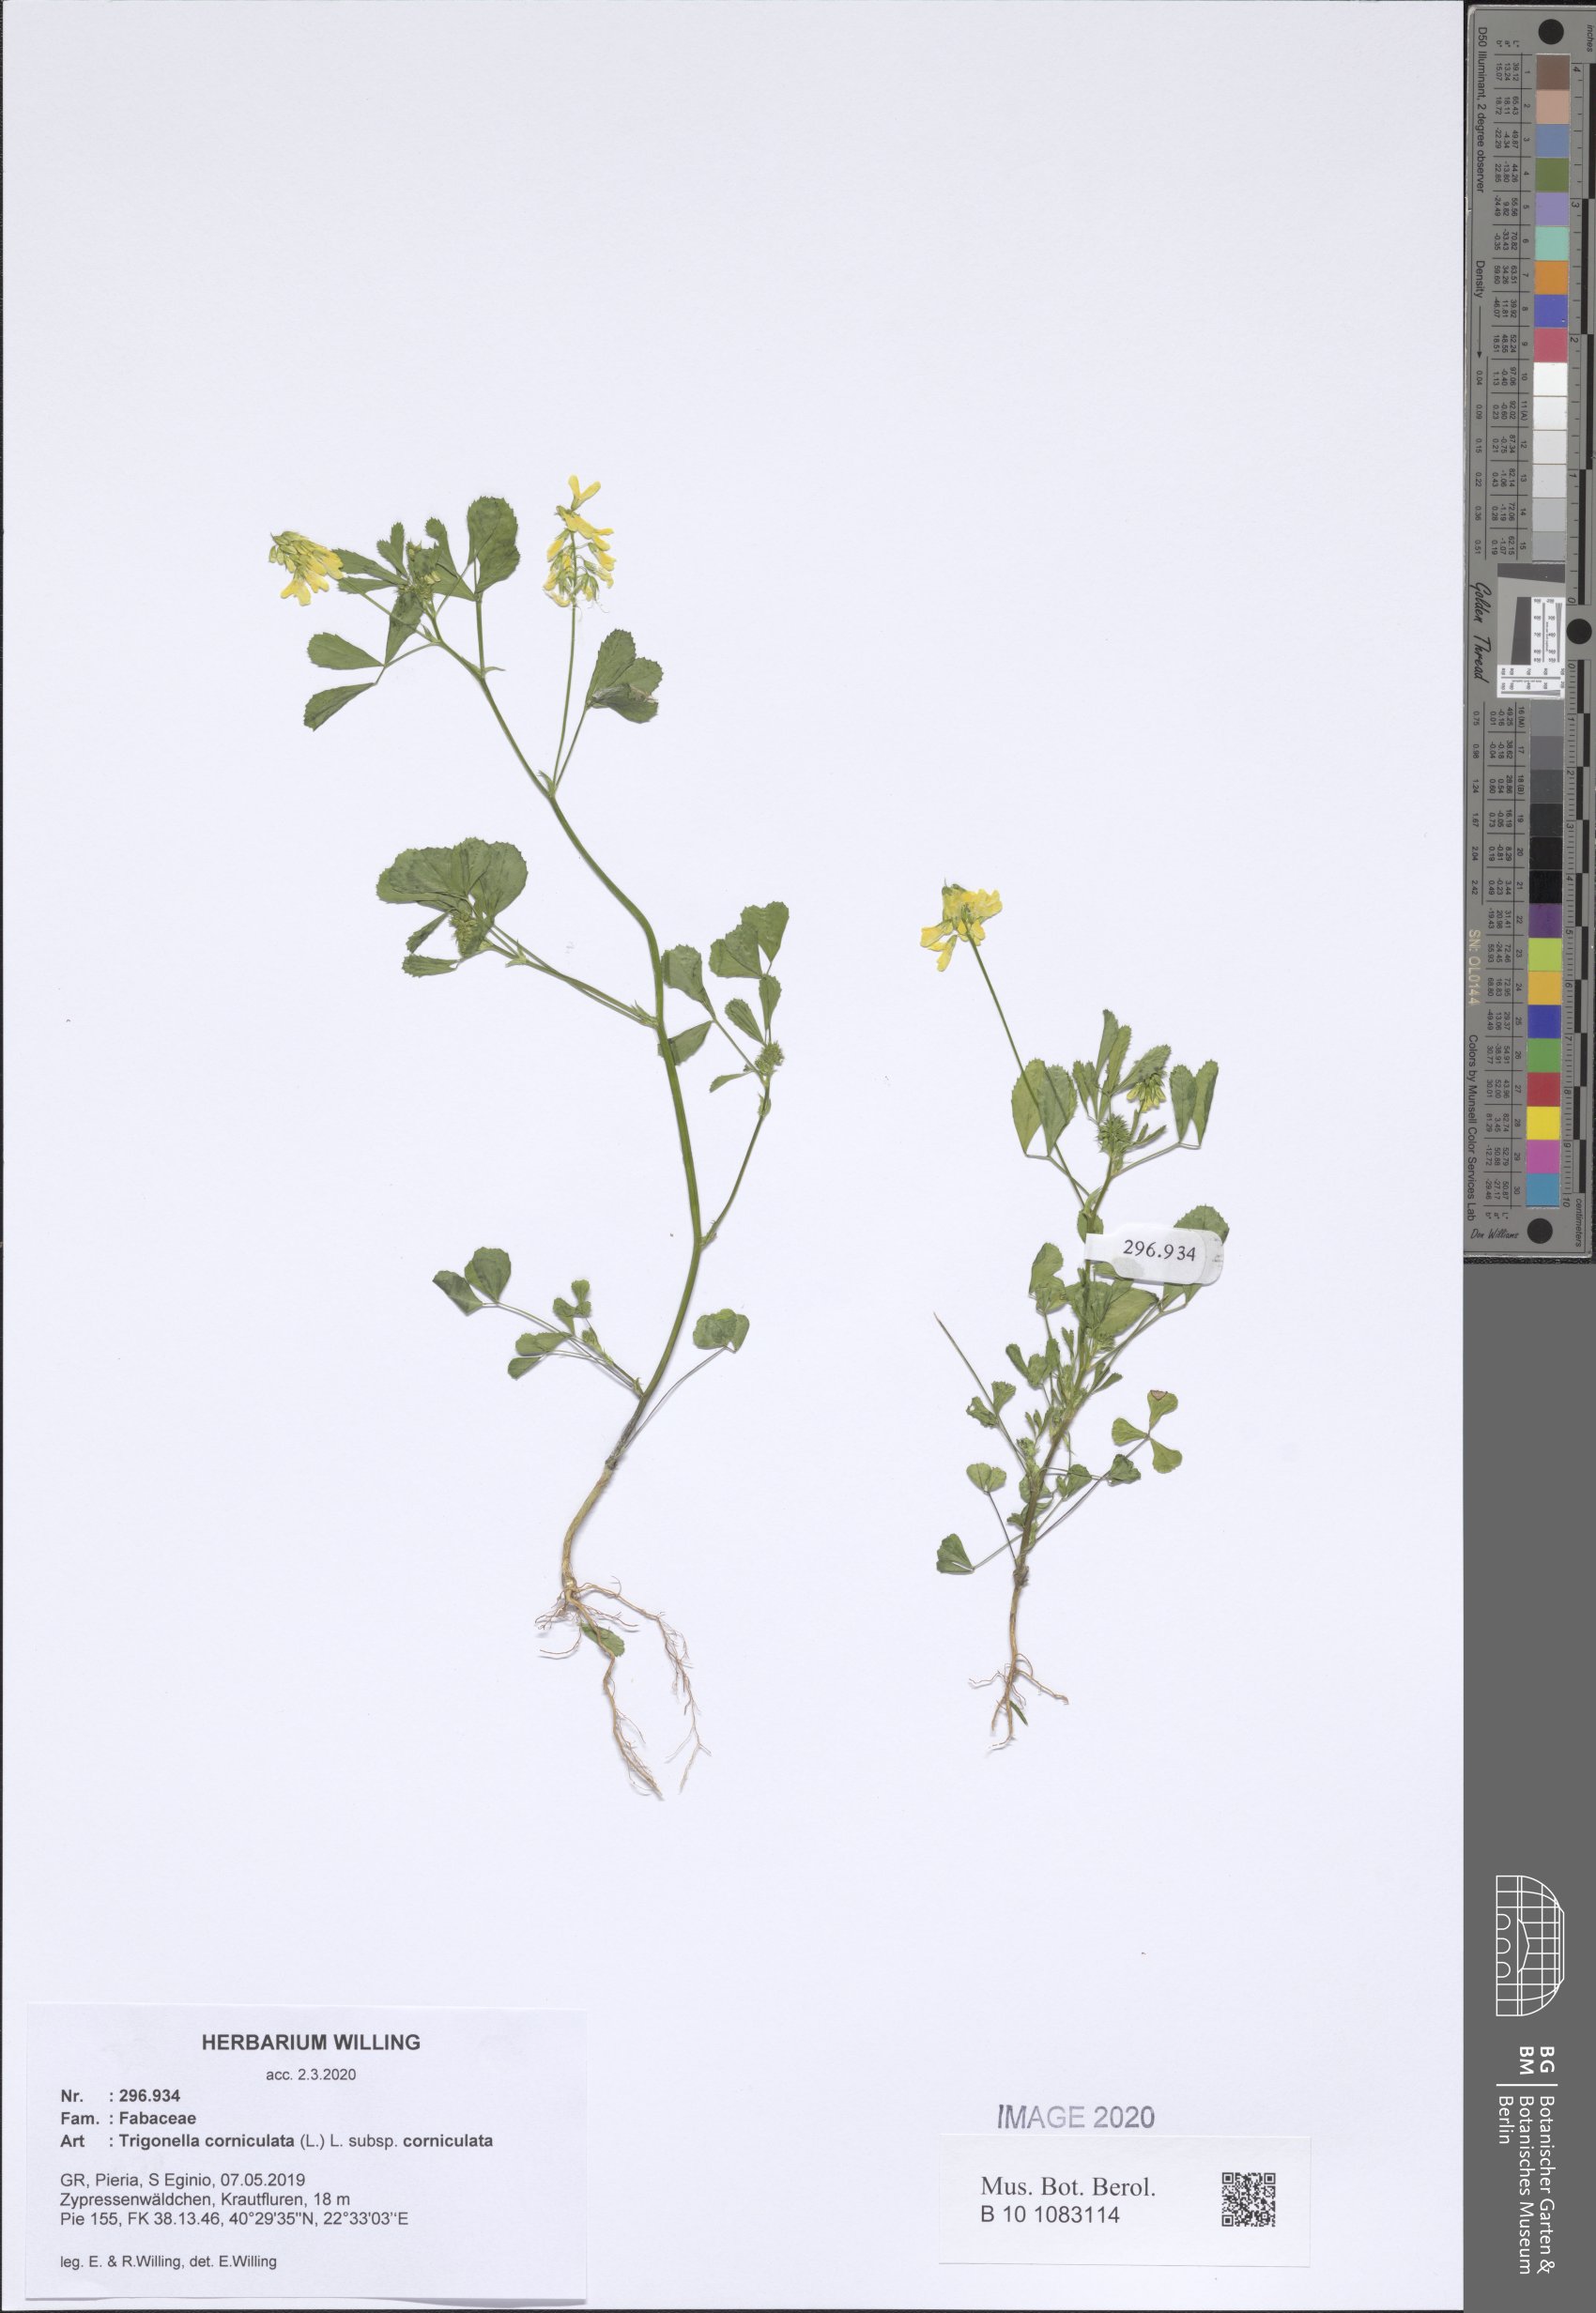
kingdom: Plantae
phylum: Tracheophyta
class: Magnoliopsida
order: Fabales
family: Fabaceae
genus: Trigonella
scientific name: Trigonella corniculata
